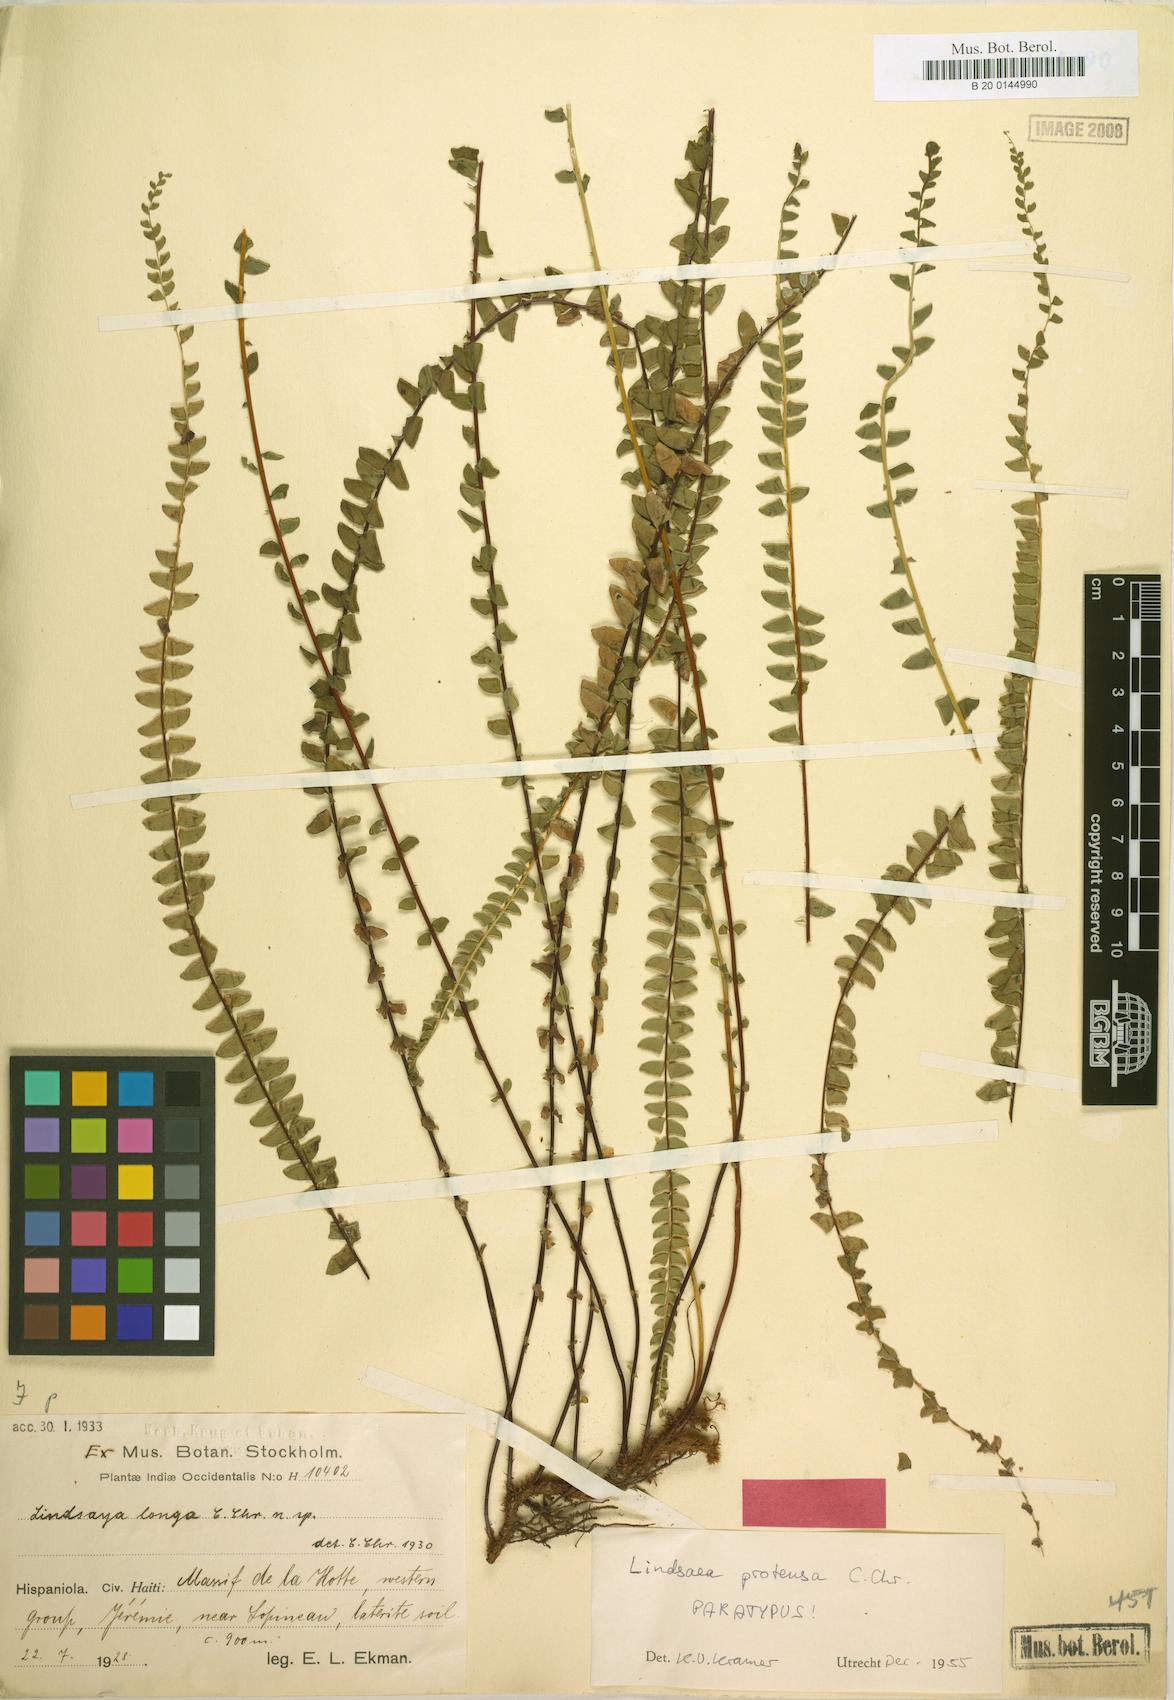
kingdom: Plantae
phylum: Tracheophyta
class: Polypodiopsida
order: Polypodiales
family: Lindsaeaceae
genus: Lindsaea
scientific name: Lindsaea protensa
